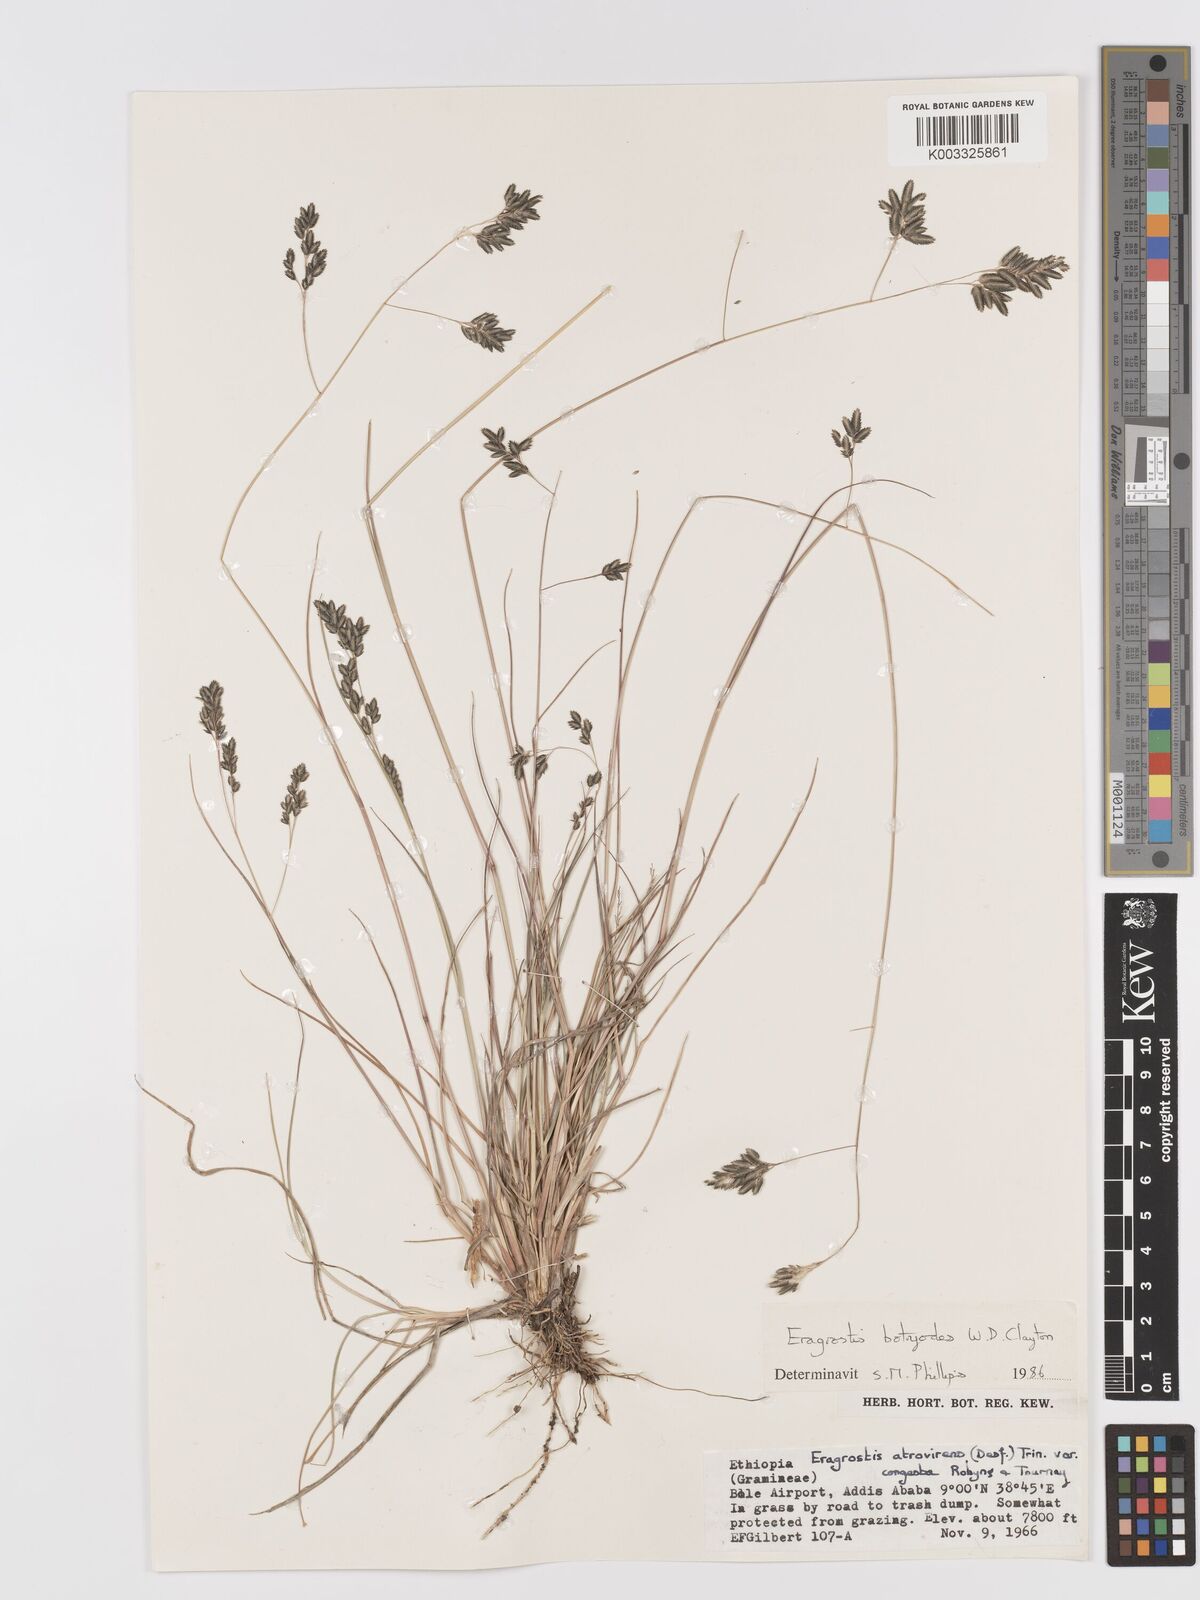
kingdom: Plantae
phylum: Tracheophyta
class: Liliopsida
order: Poales
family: Poaceae
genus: Eragrostis
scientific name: Eragrostis botryodes
